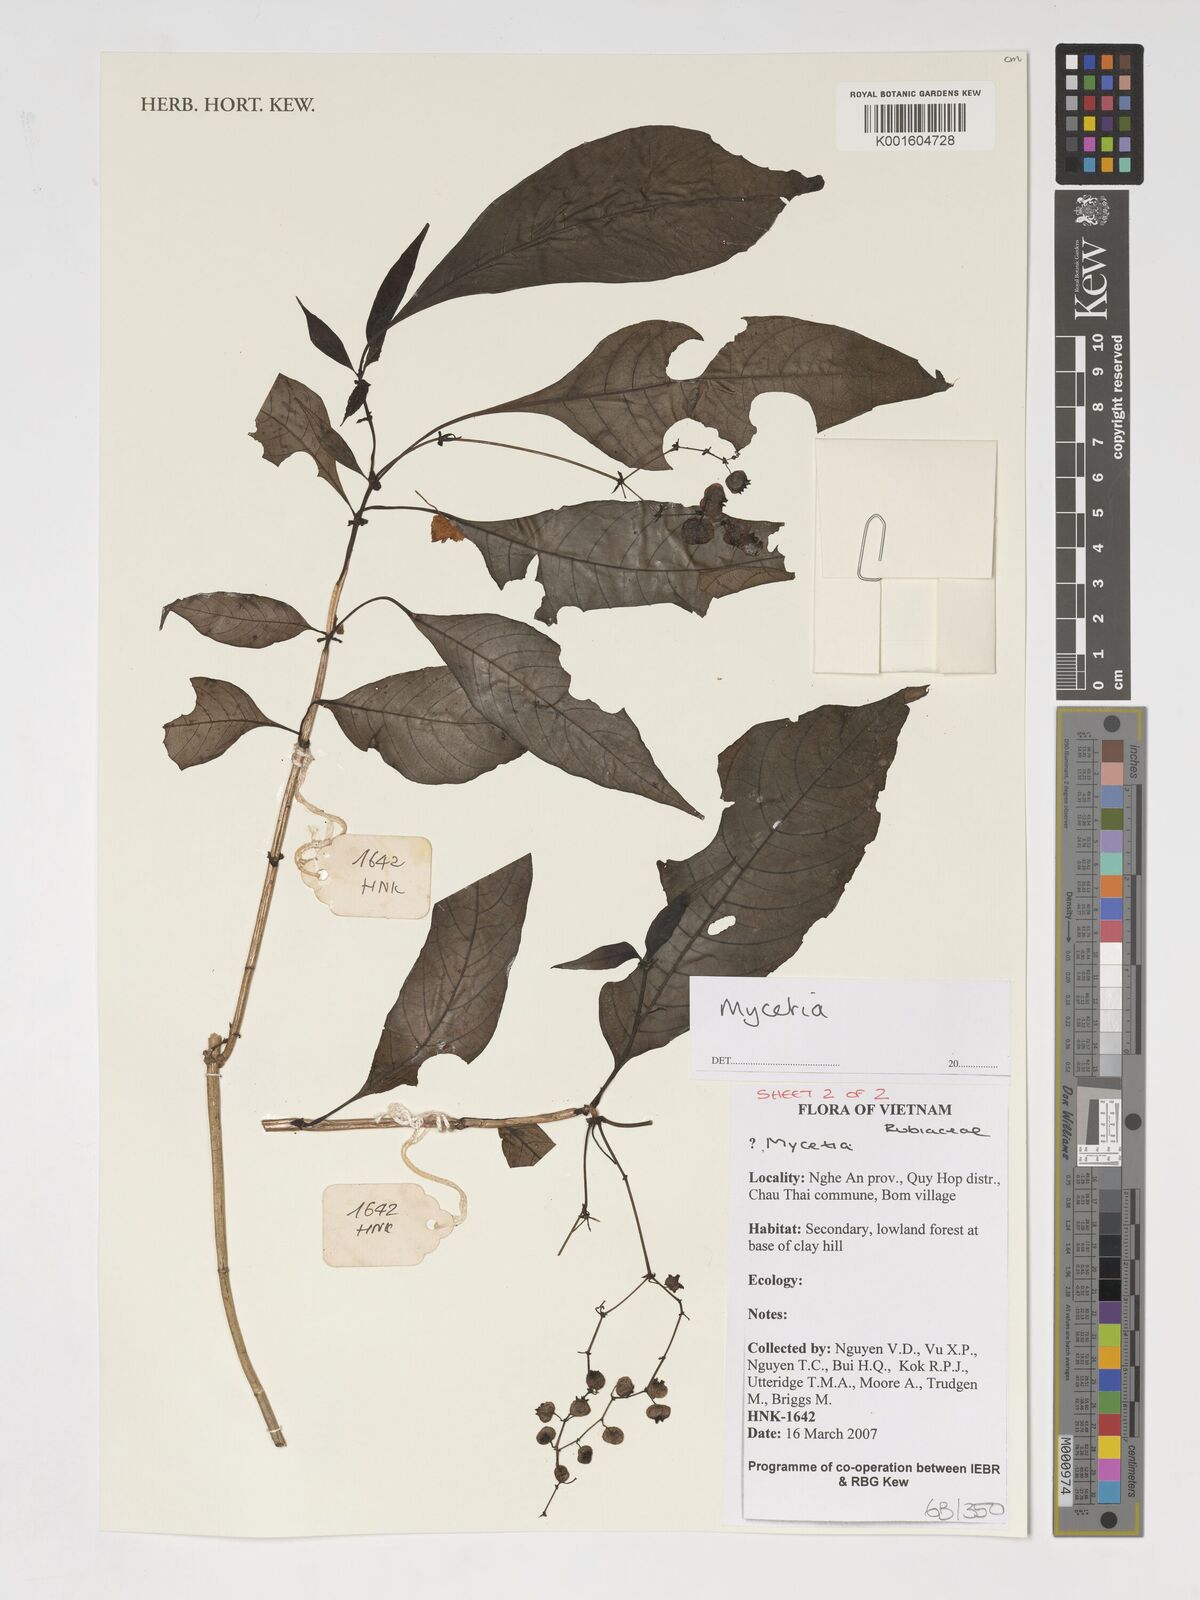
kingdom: Plantae
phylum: Tracheophyta
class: Magnoliopsida
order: Gentianales
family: Rubiaceae
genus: Mycetia
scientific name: Mycetia
